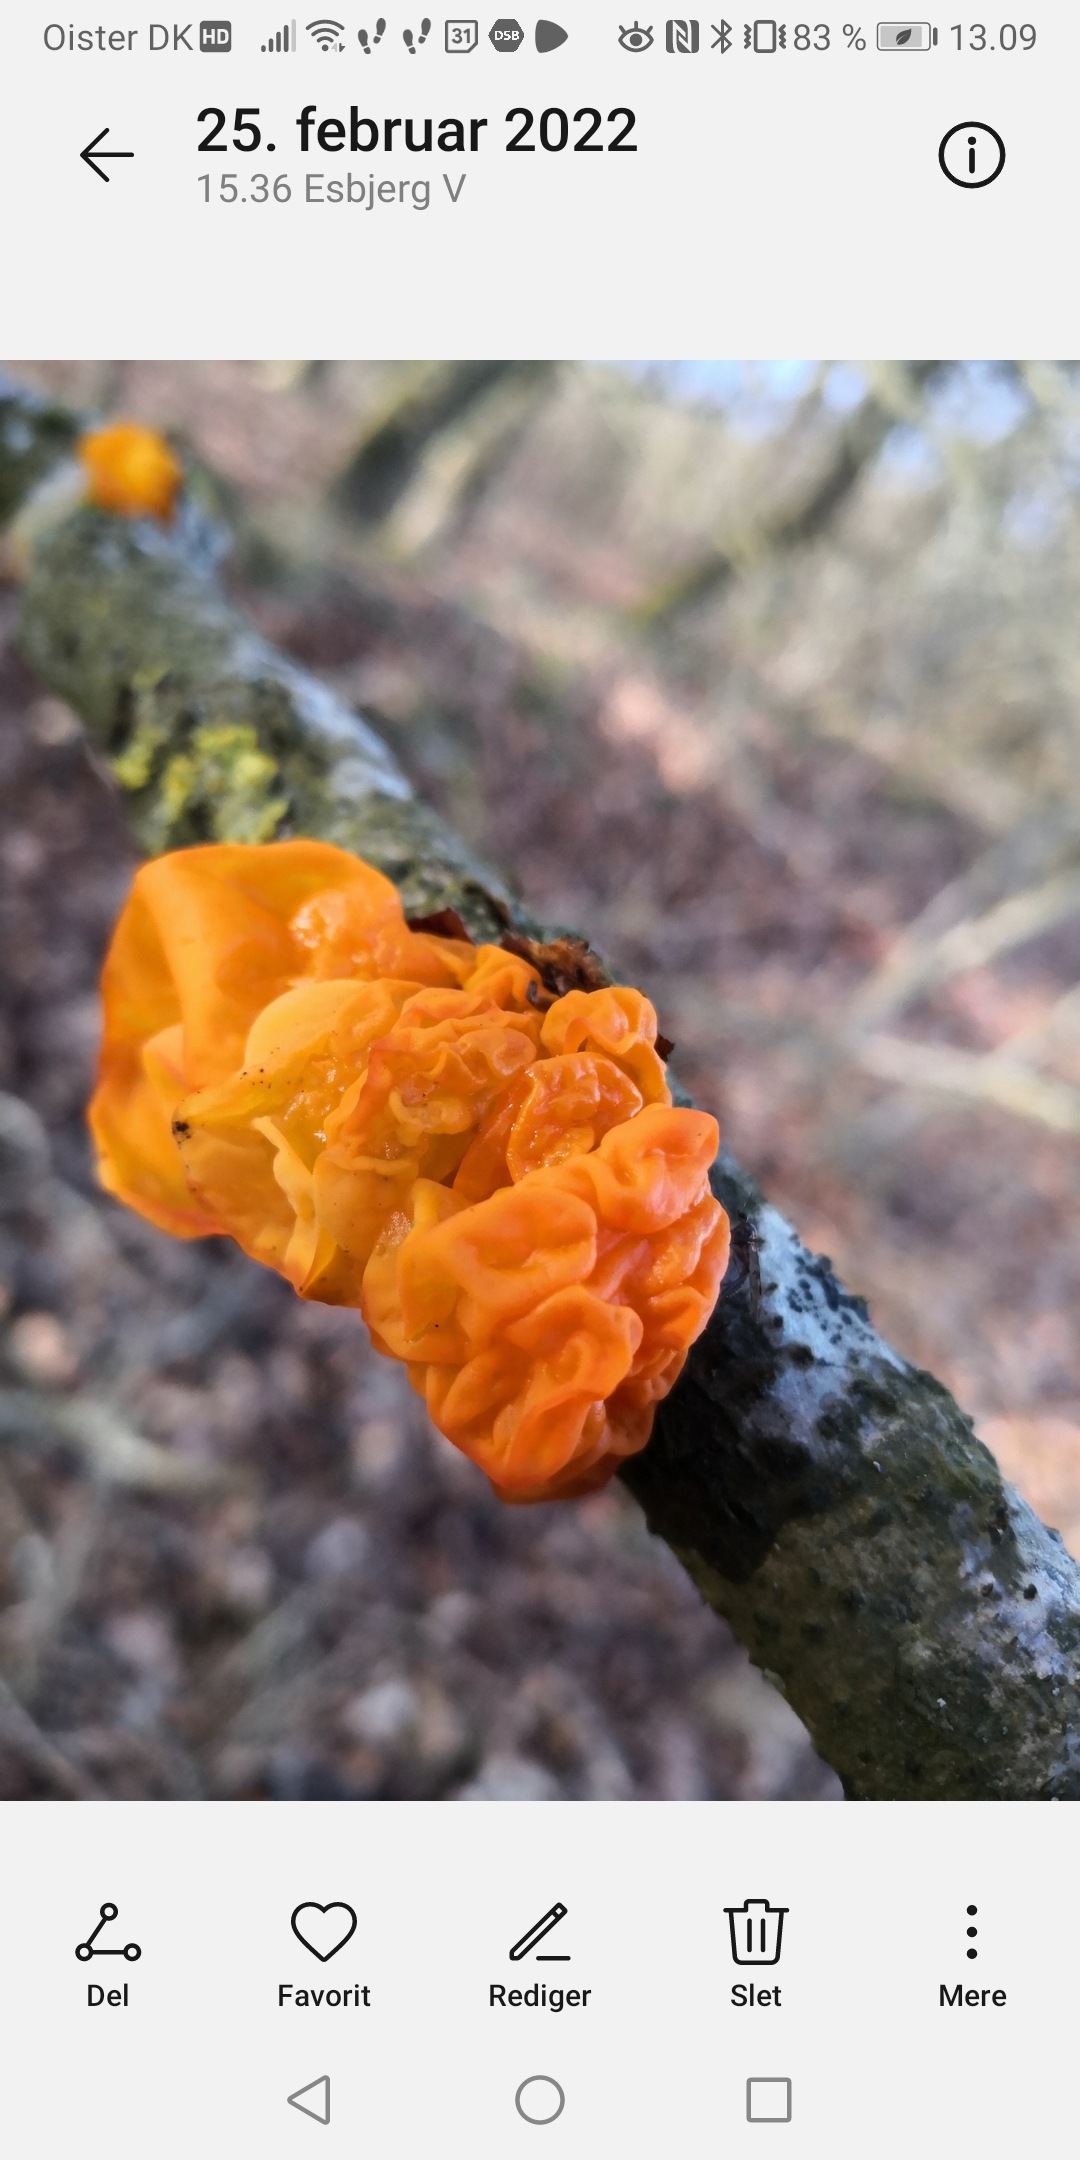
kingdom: Fungi
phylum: Basidiomycota
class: Tremellomycetes
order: Tremellales
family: Tremellaceae
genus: Tremella
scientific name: Tremella mesenterica
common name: Gul bævresvamp
